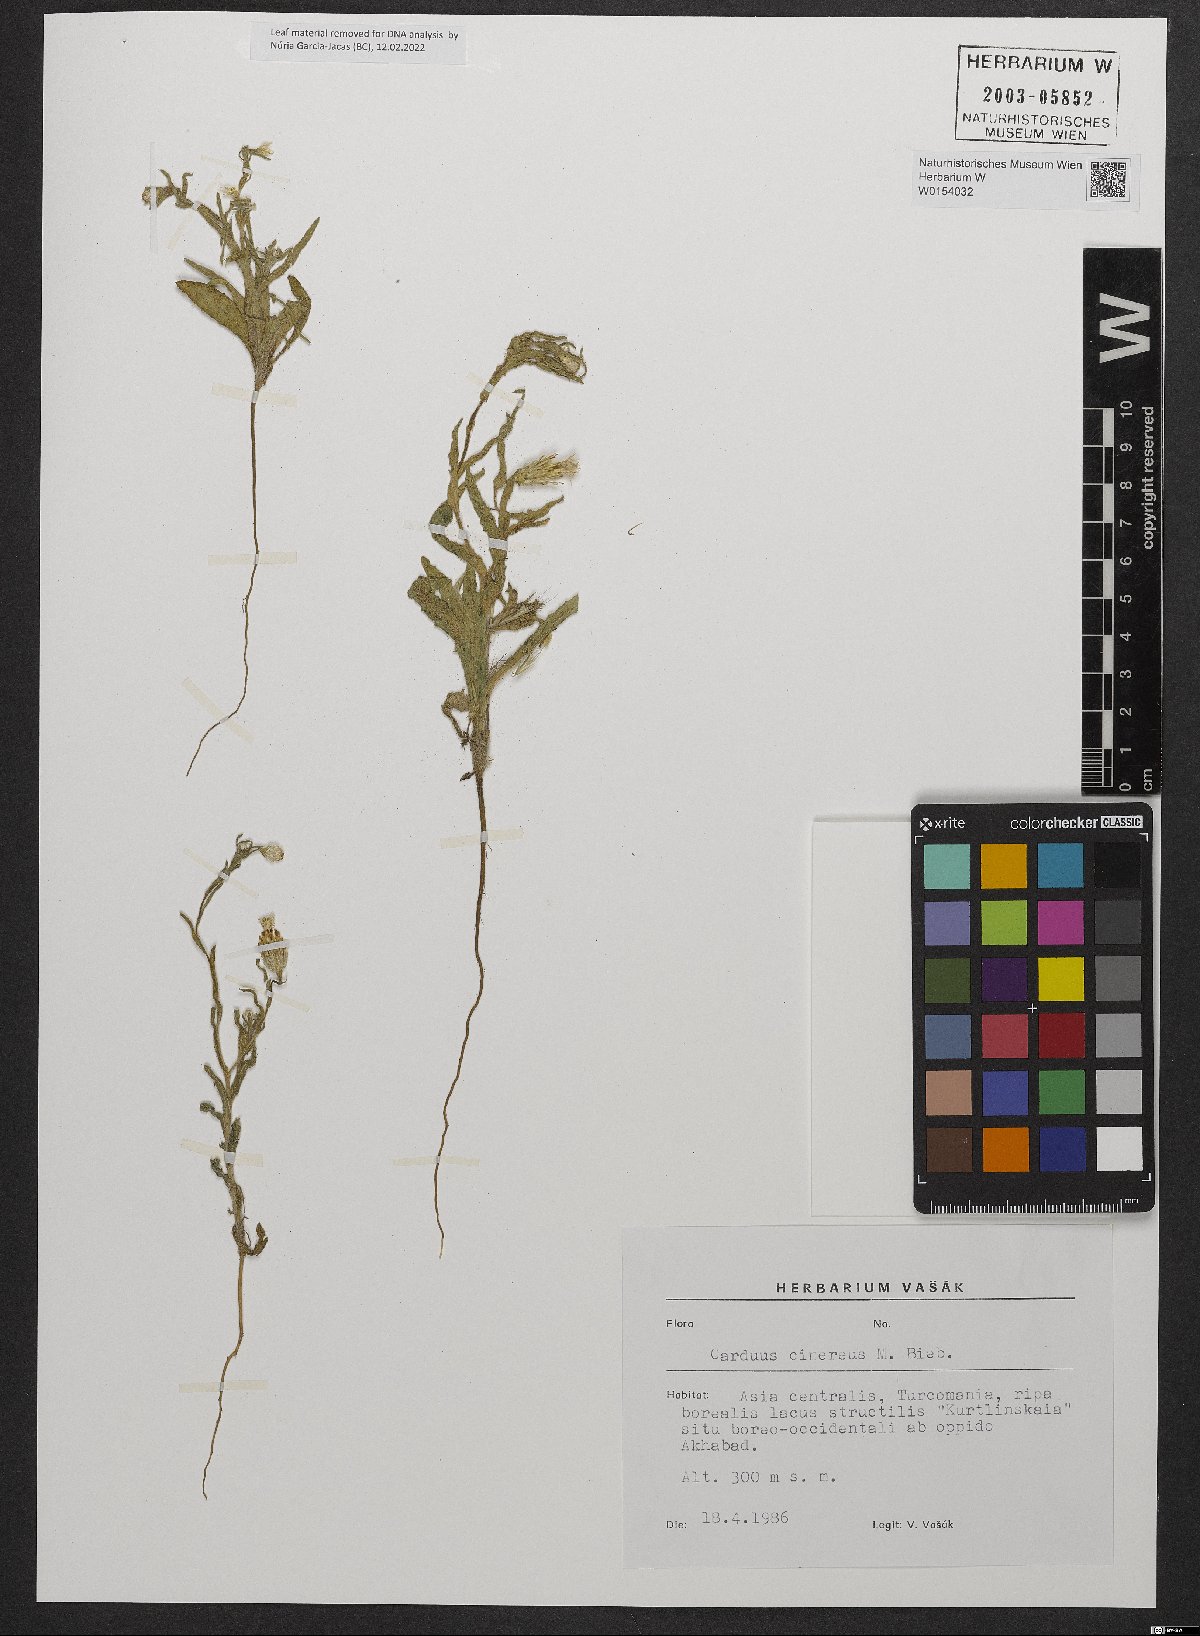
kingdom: Plantae
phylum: Tracheophyta
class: Magnoliopsida
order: Asterales
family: Asteraceae
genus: Carduus
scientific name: Carduus arabicus
